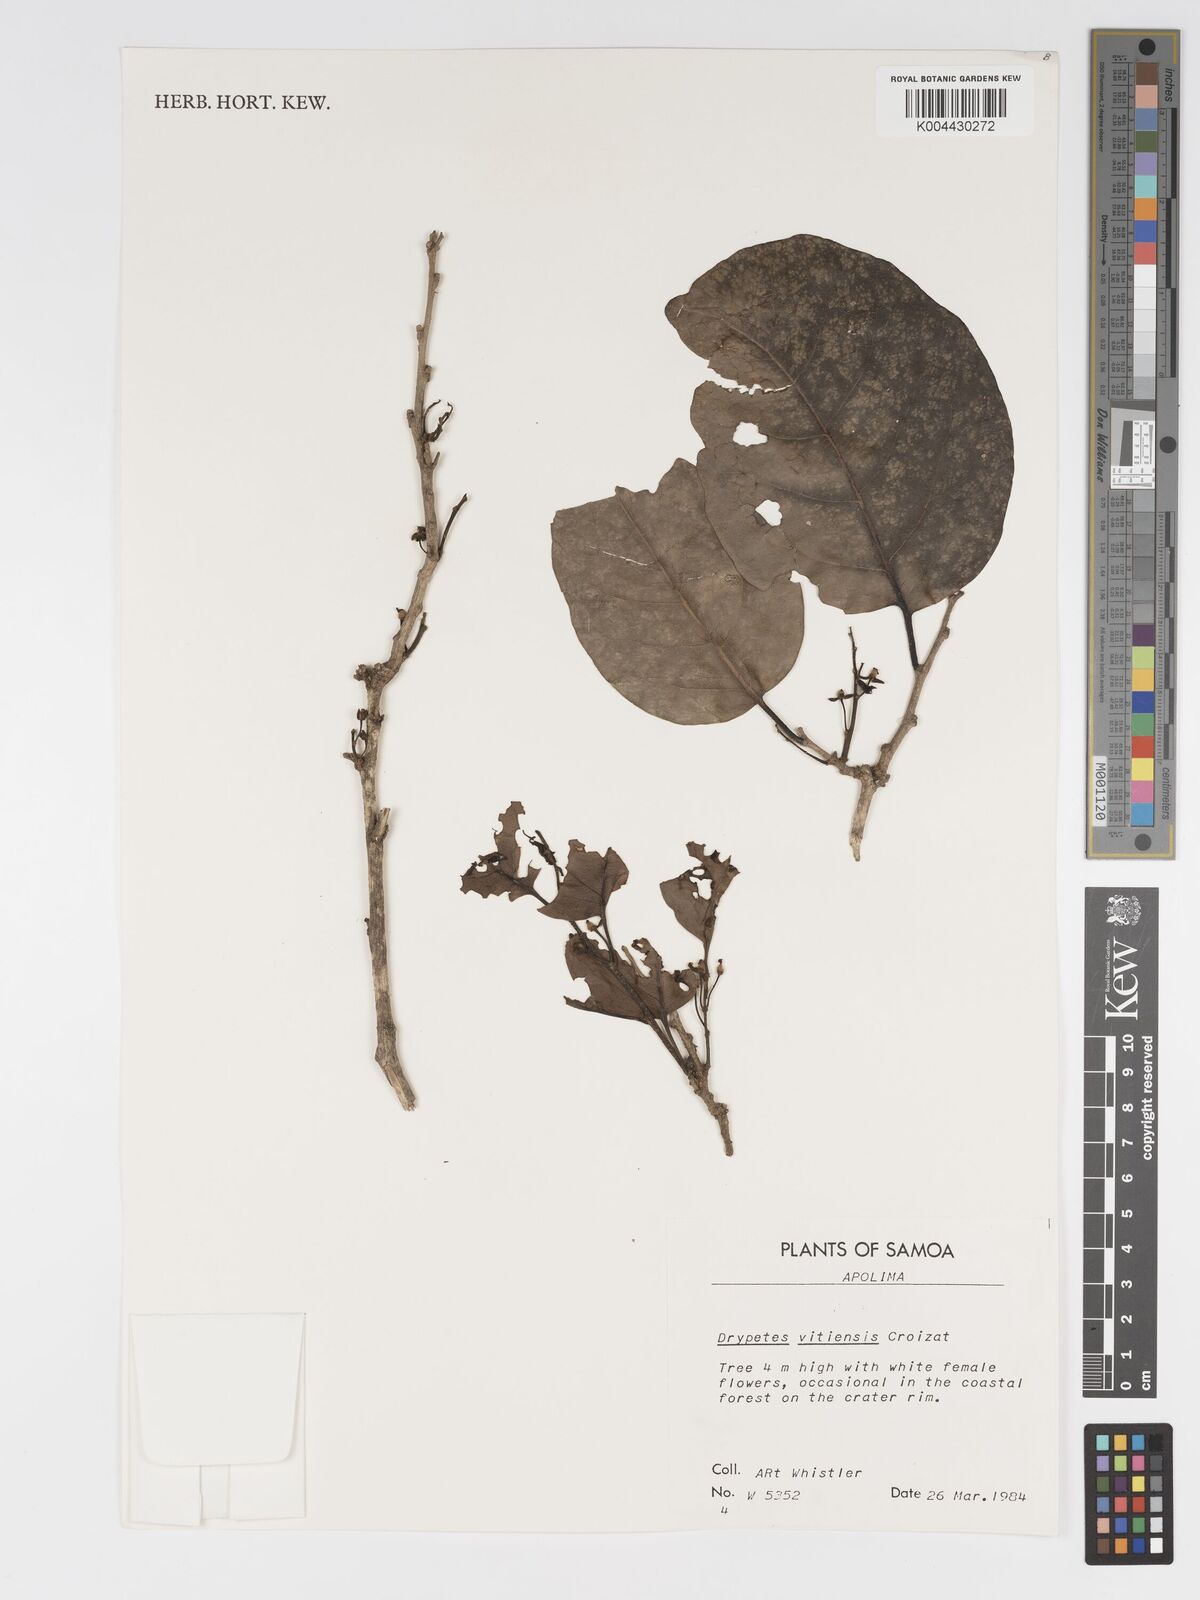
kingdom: Plantae
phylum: Tracheophyta
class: Magnoliopsida
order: Malpighiales
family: Putranjivaceae
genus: Drypetes
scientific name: Drypetes vitiensis
